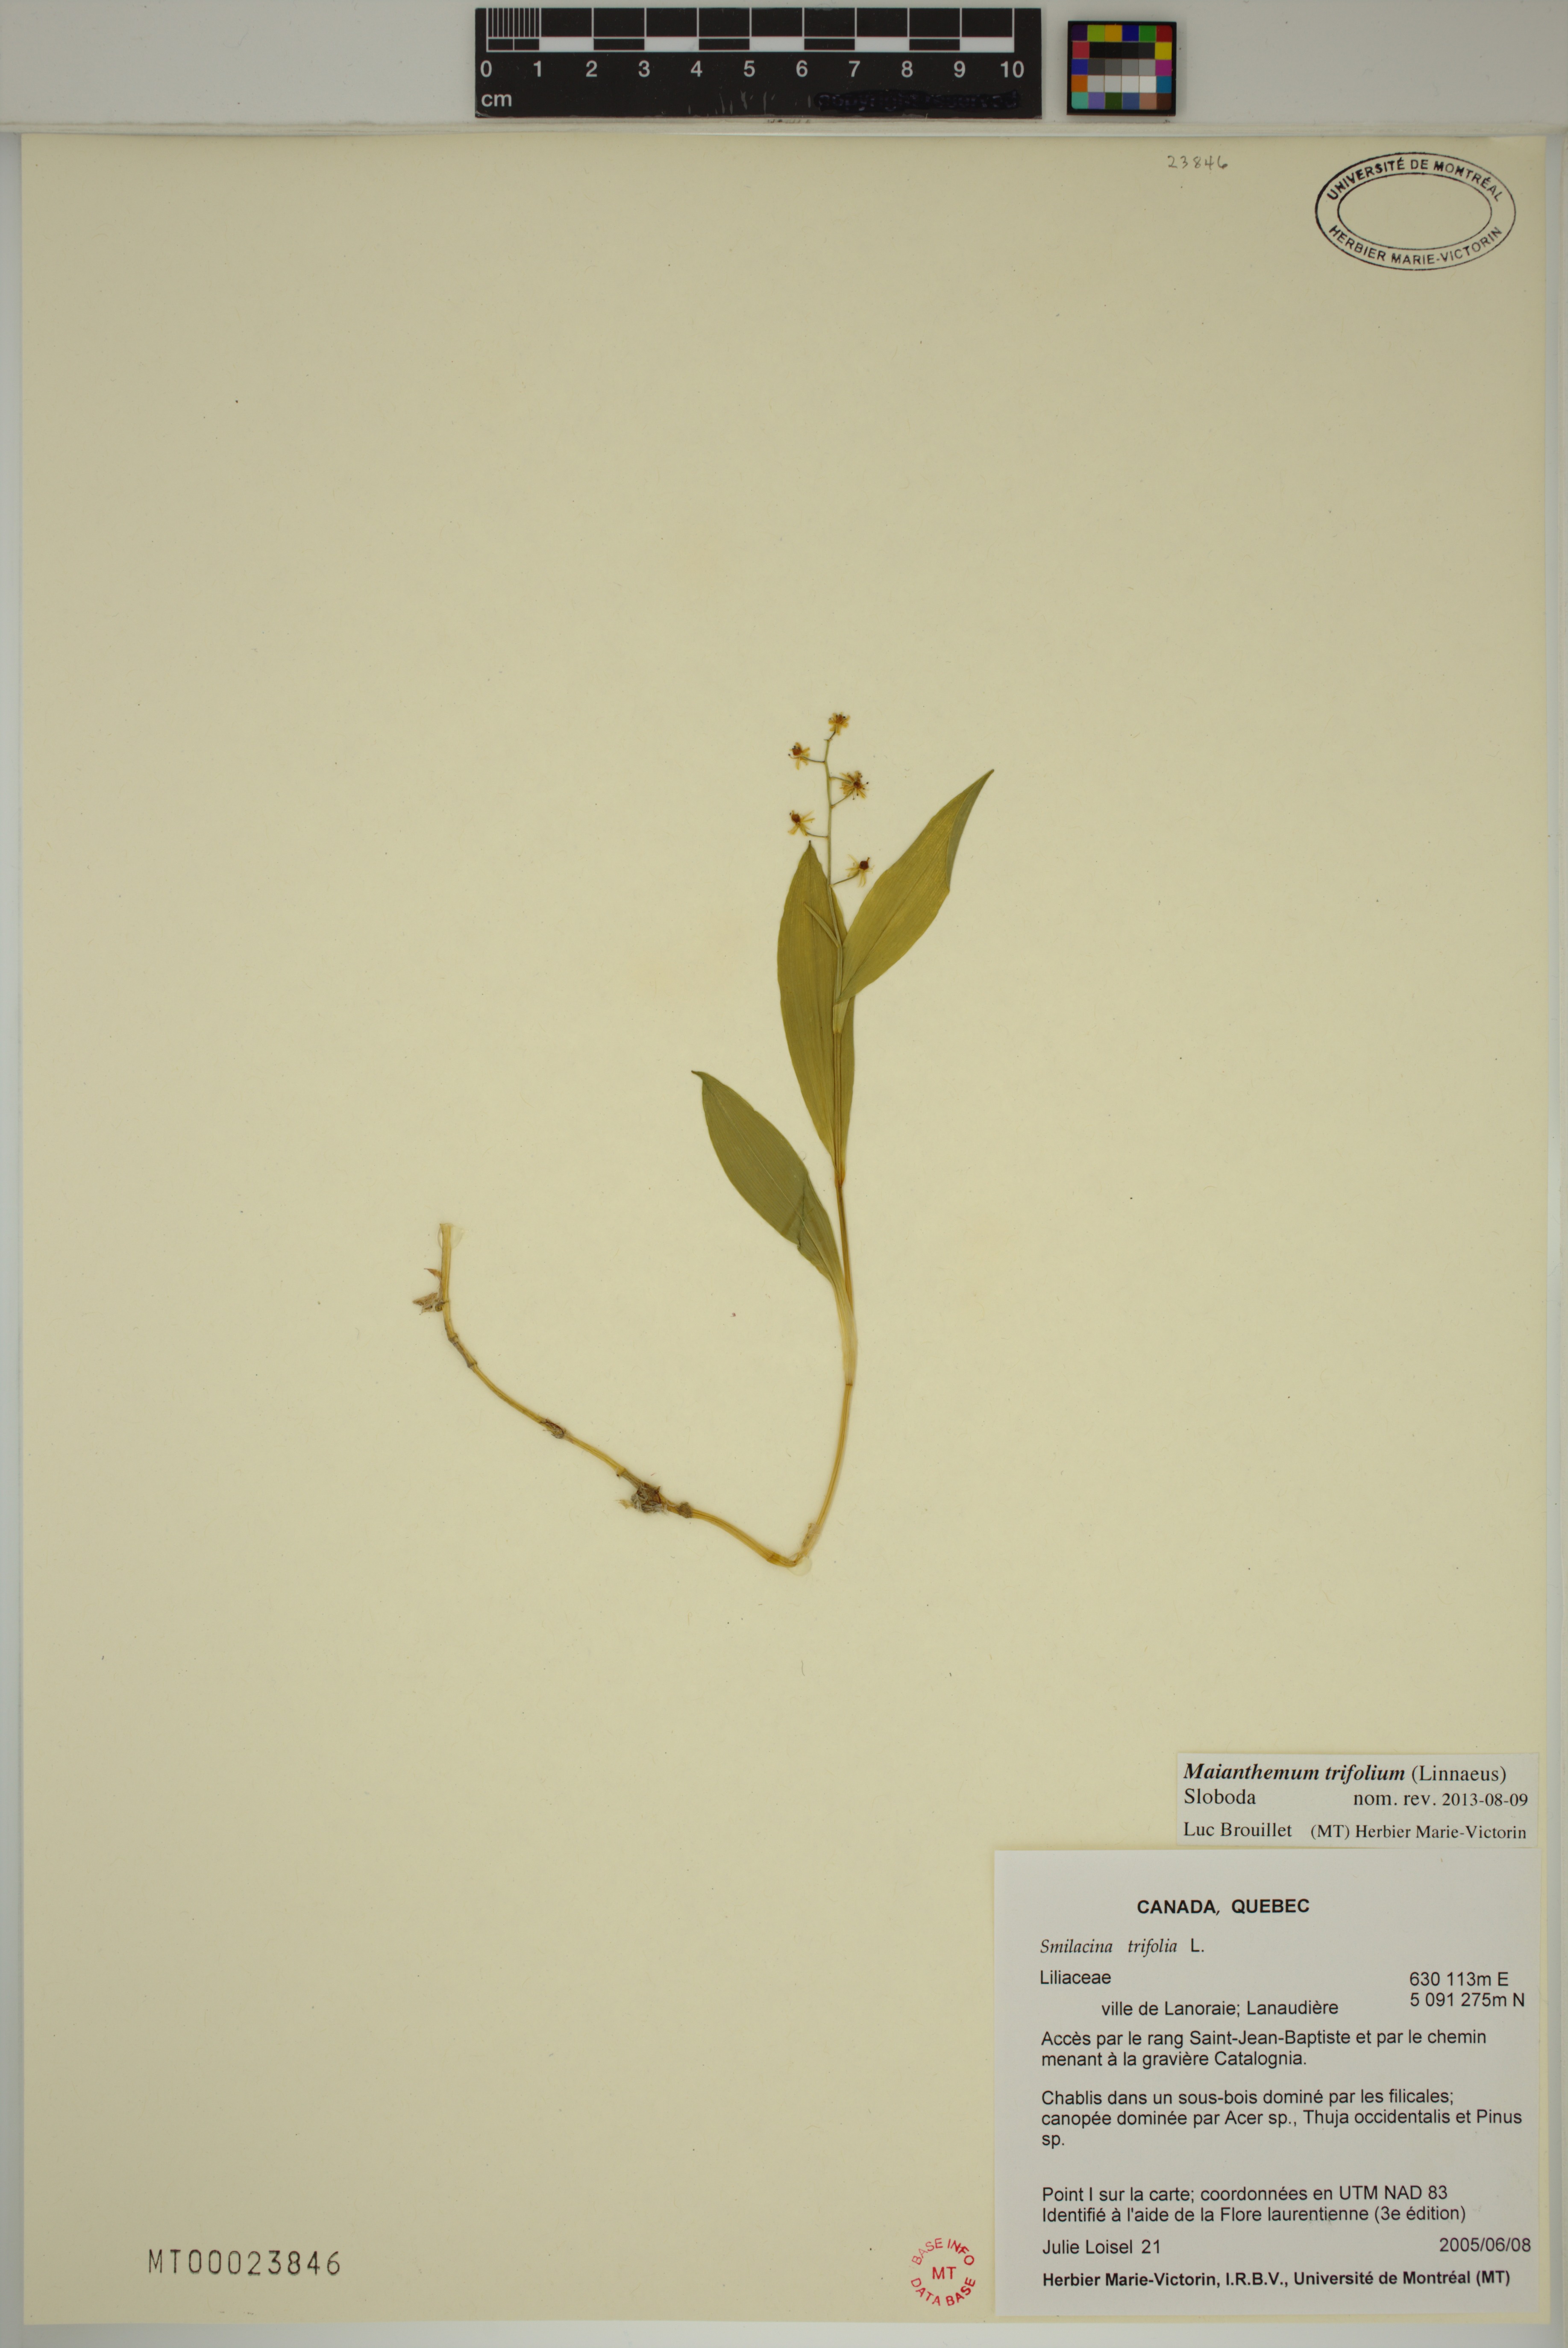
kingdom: Plantae
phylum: Tracheophyta
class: Liliopsida
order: Asparagales
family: Asparagaceae
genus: Maianthemum
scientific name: Maianthemum trifolium
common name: Swamp false solomon's seal
